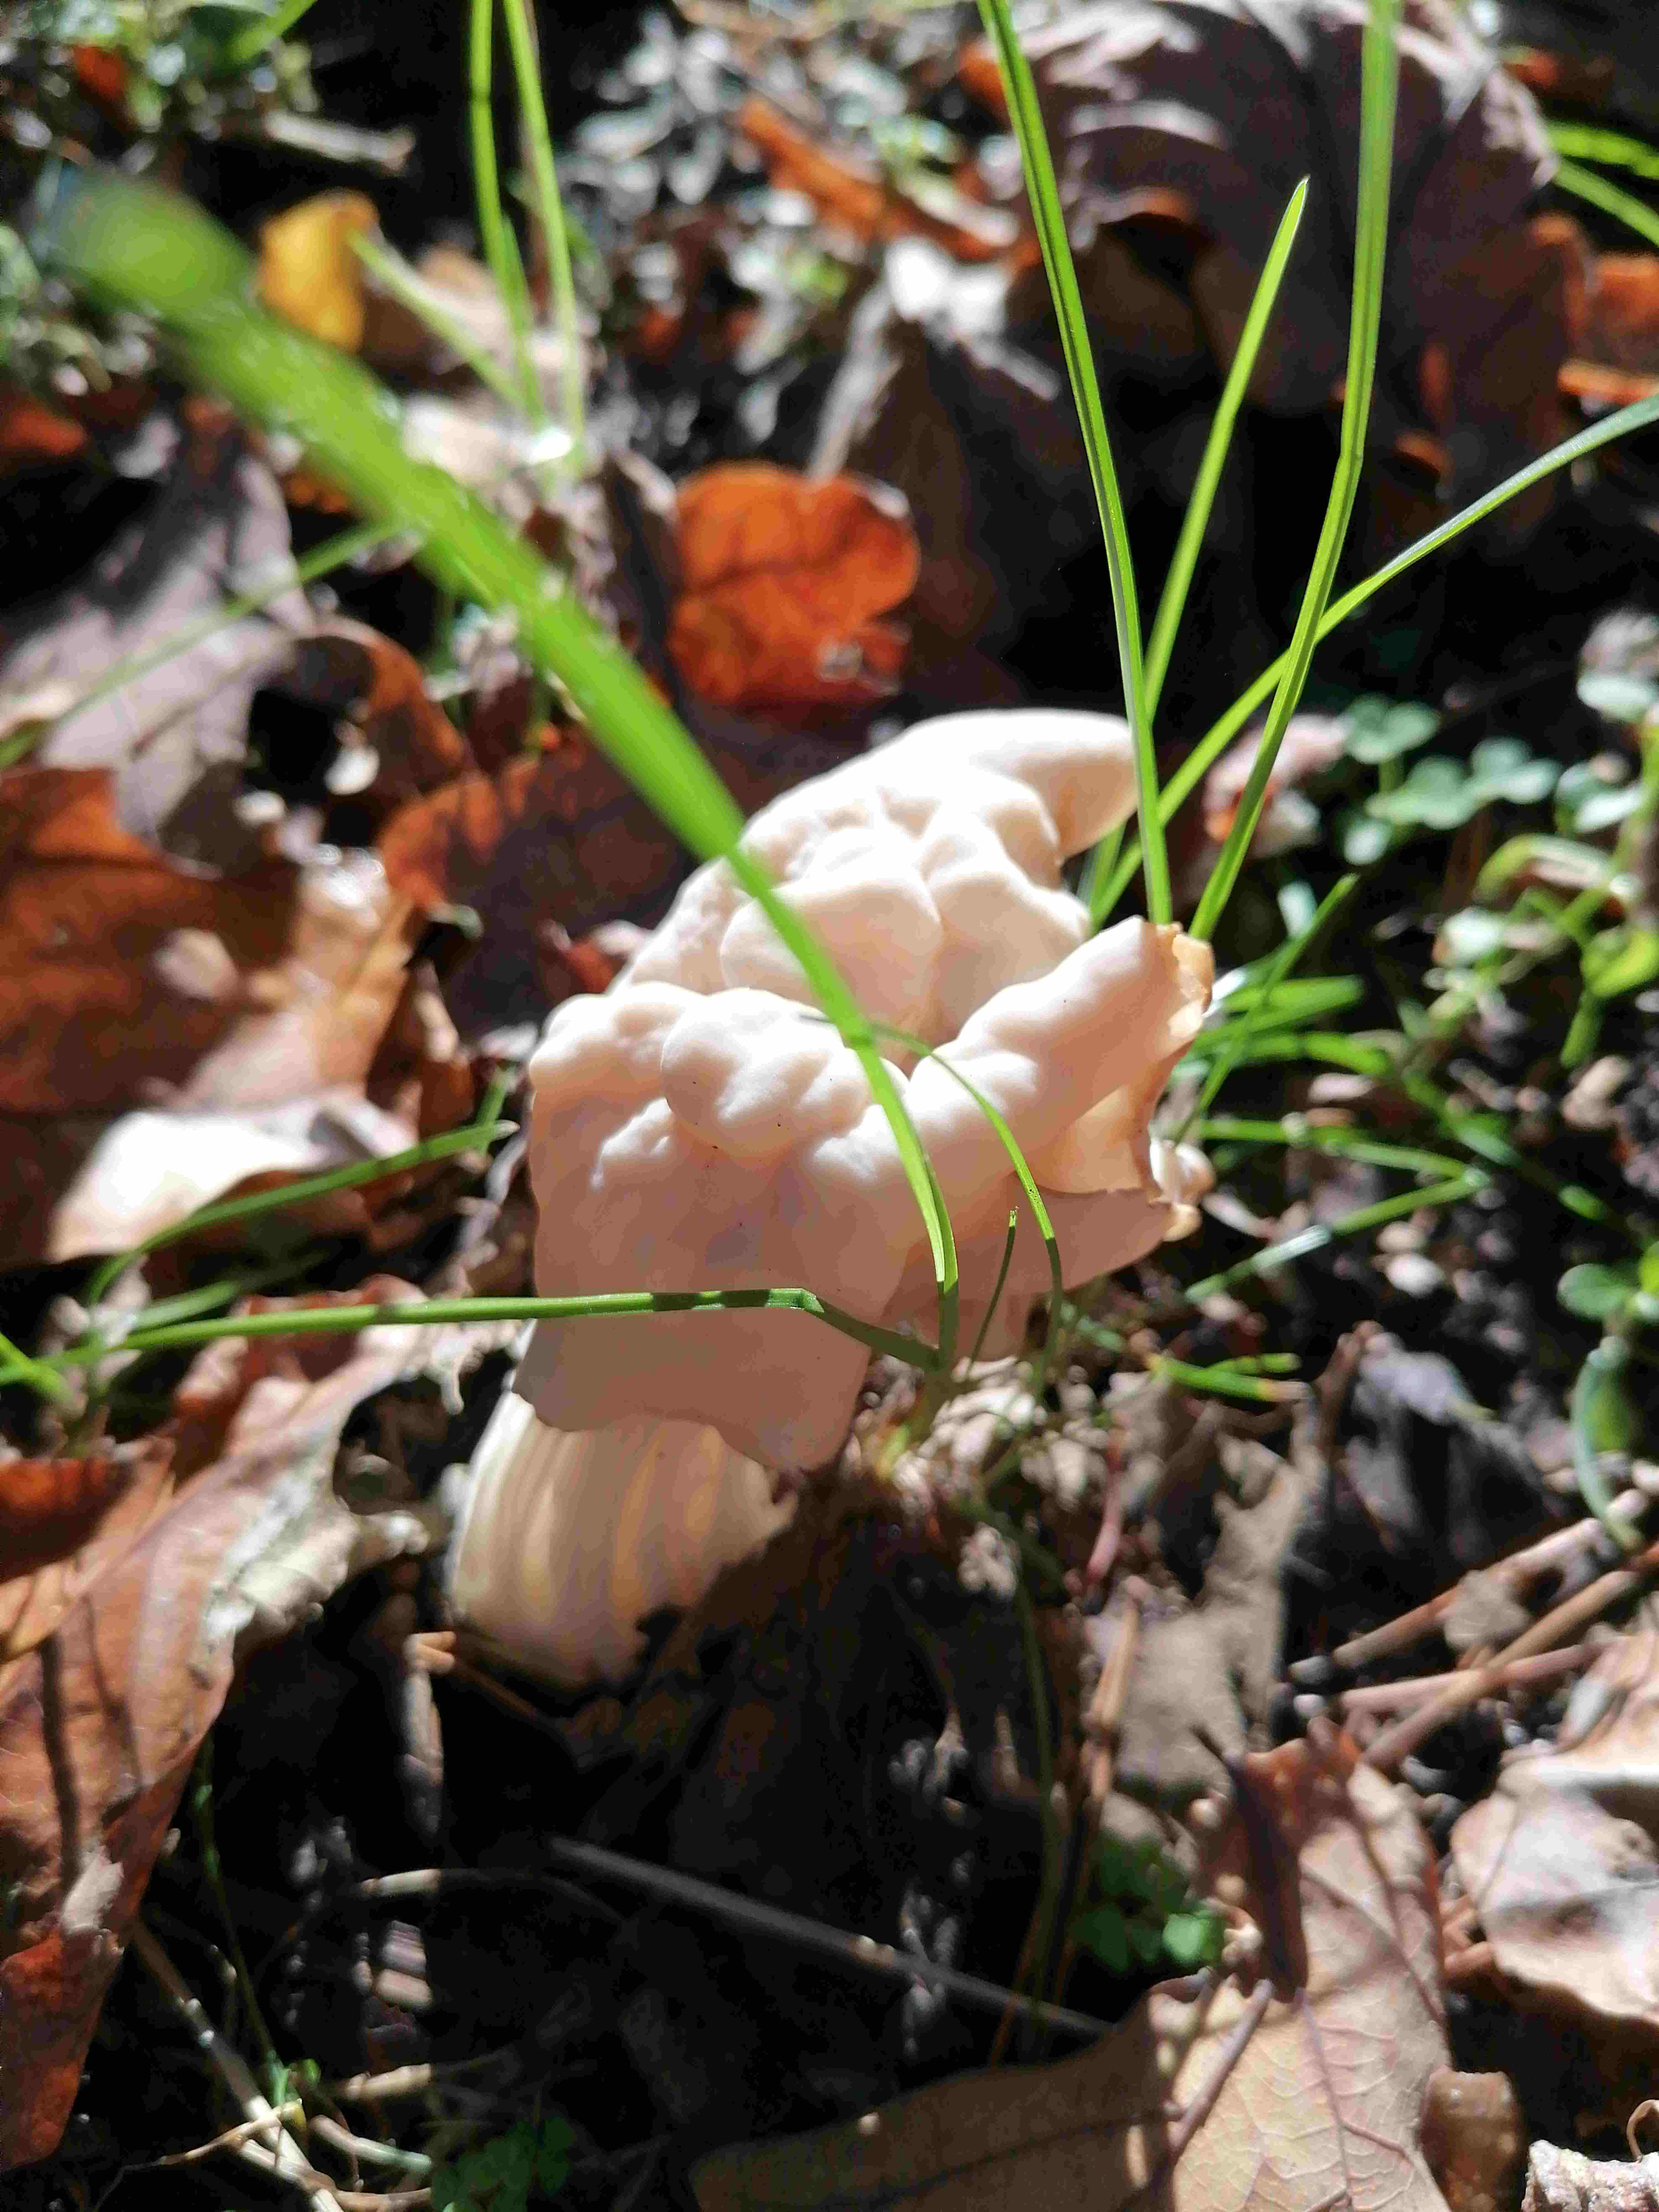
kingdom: Fungi
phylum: Ascomycota
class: Pezizomycetes
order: Pezizales
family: Helvellaceae
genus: Helvella
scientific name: Helvella crispa
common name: kruset foldhat
